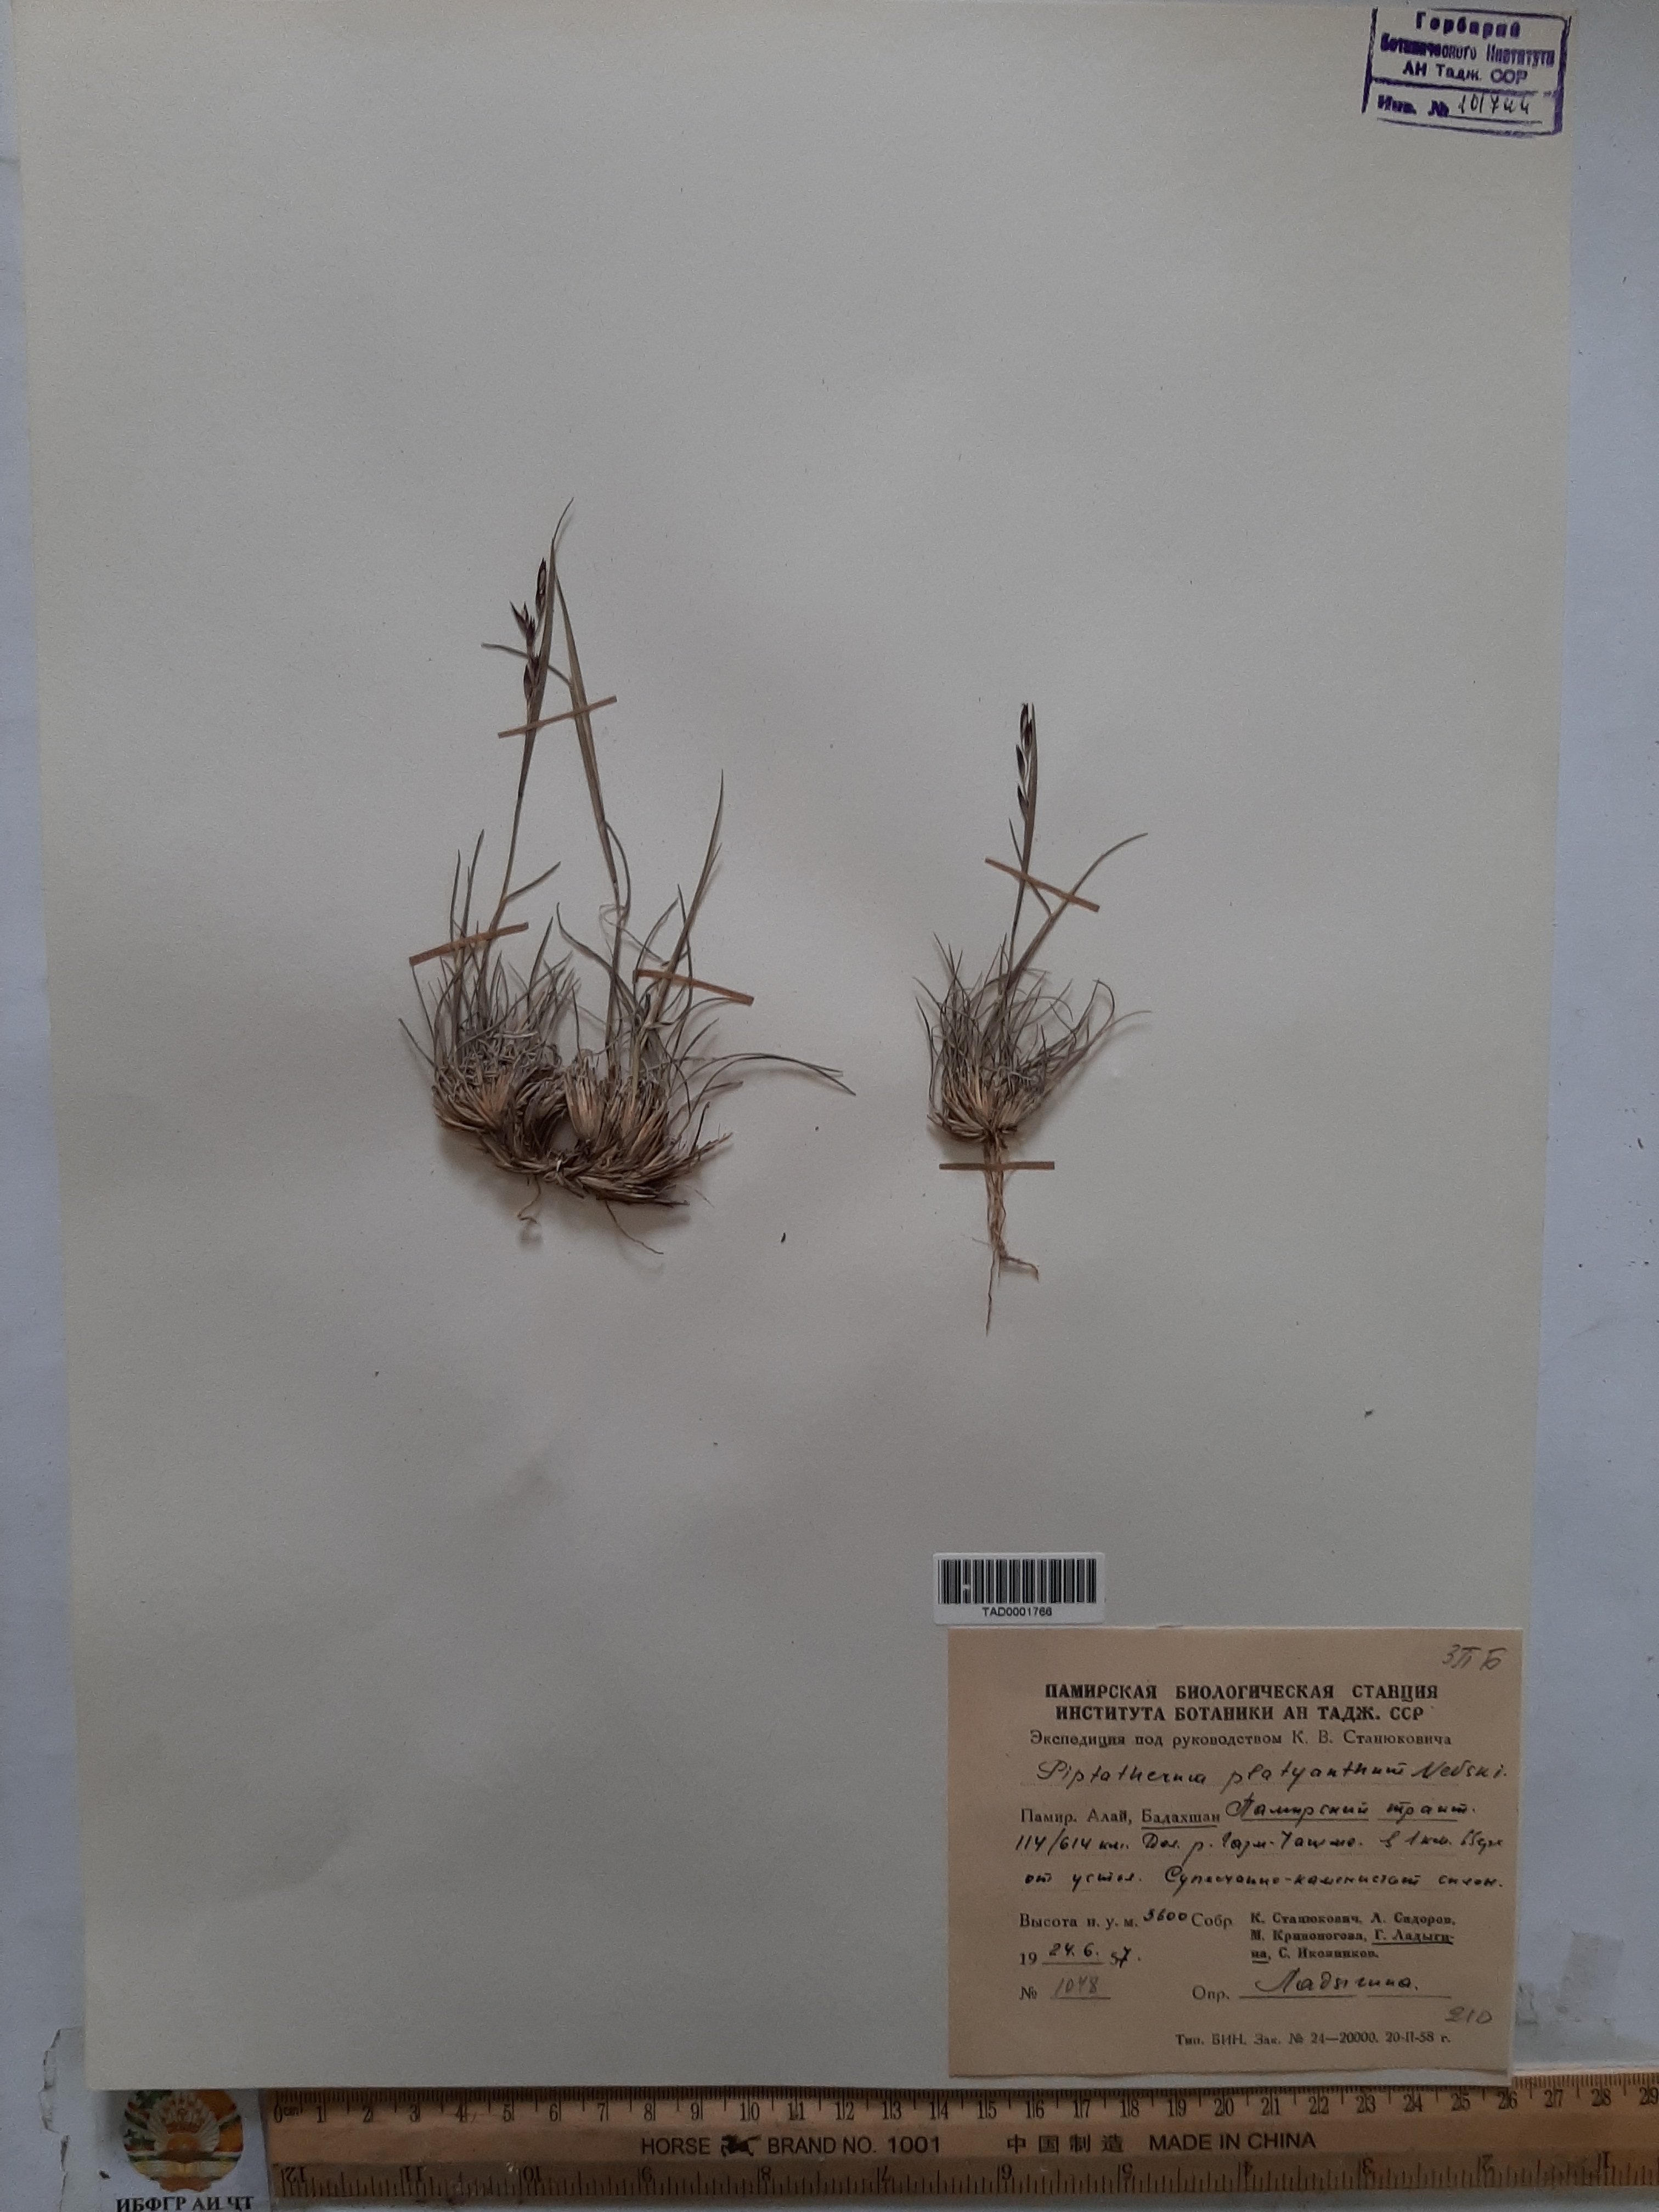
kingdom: Plantae
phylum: Tracheophyta
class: Liliopsida
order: Poales
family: Poaceae
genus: Piptatherum
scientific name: Piptatherum platyanthum
